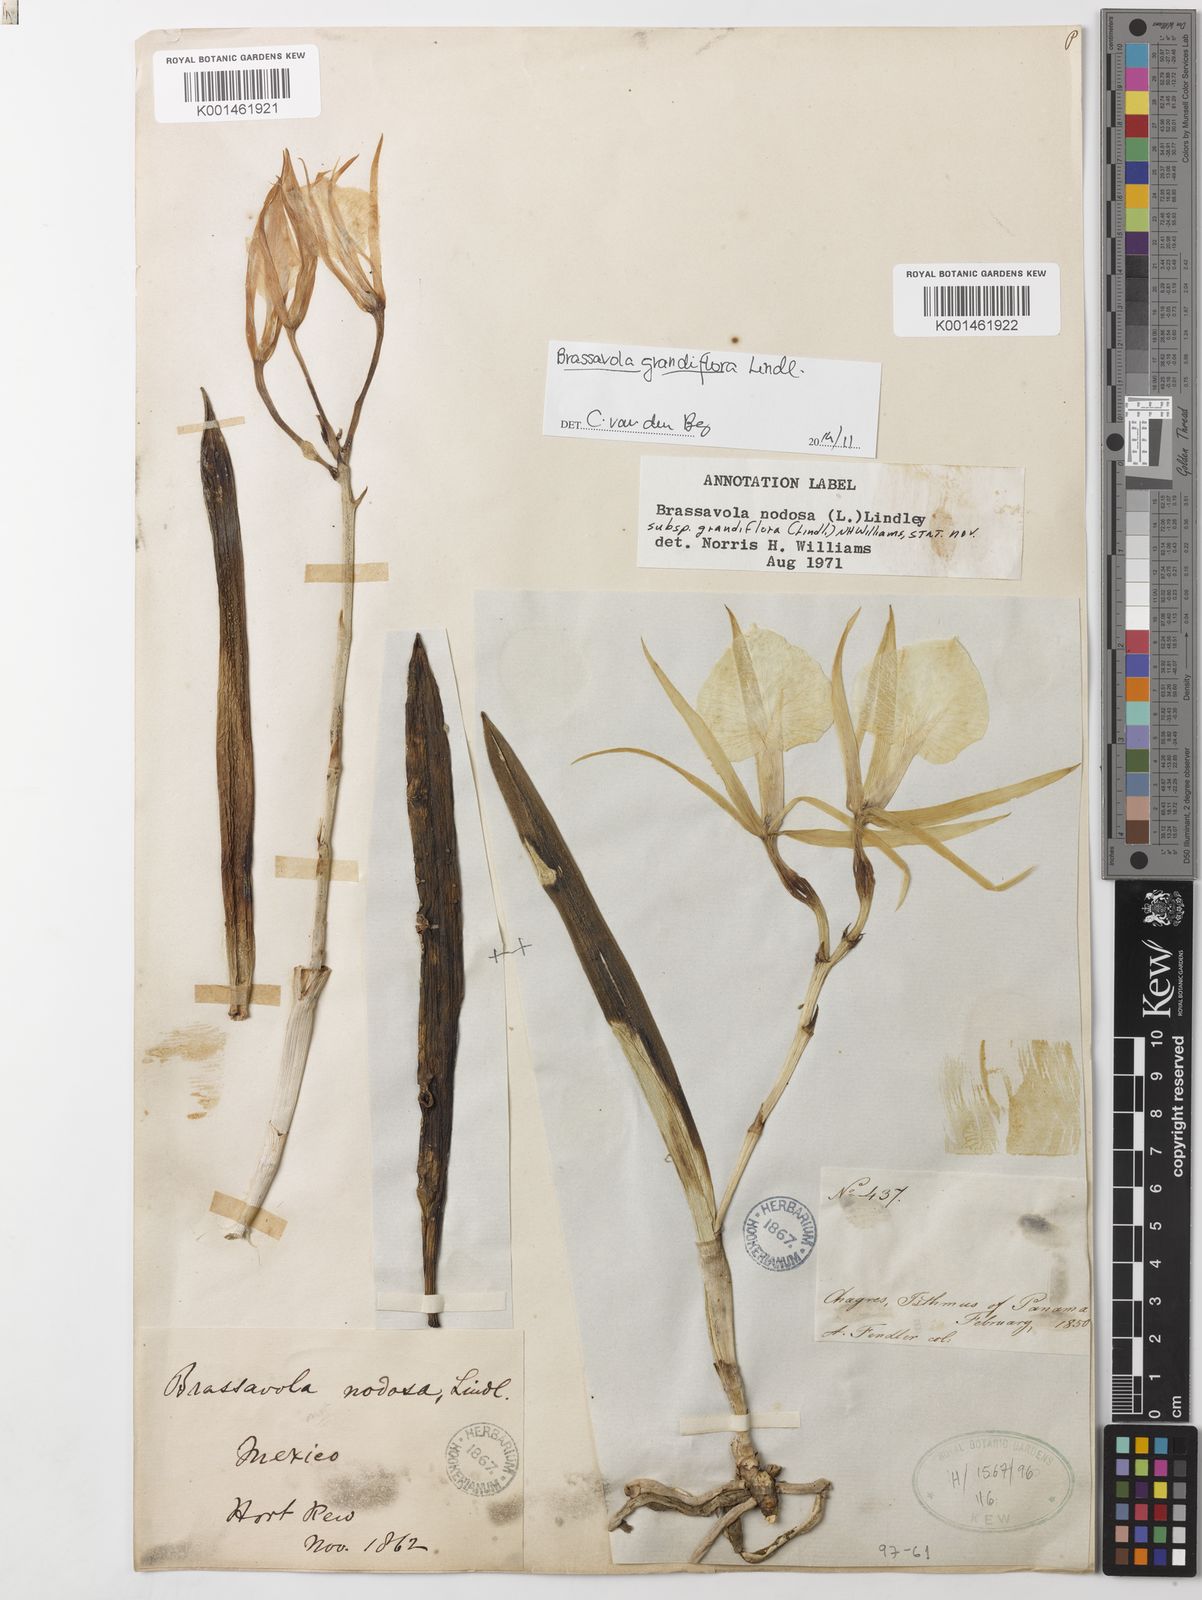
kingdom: Plantae
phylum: Tracheophyta
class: Liliopsida
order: Asparagales
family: Orchidaceae
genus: Brassavola
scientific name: Brassavola nodosa
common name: Lady of the night
